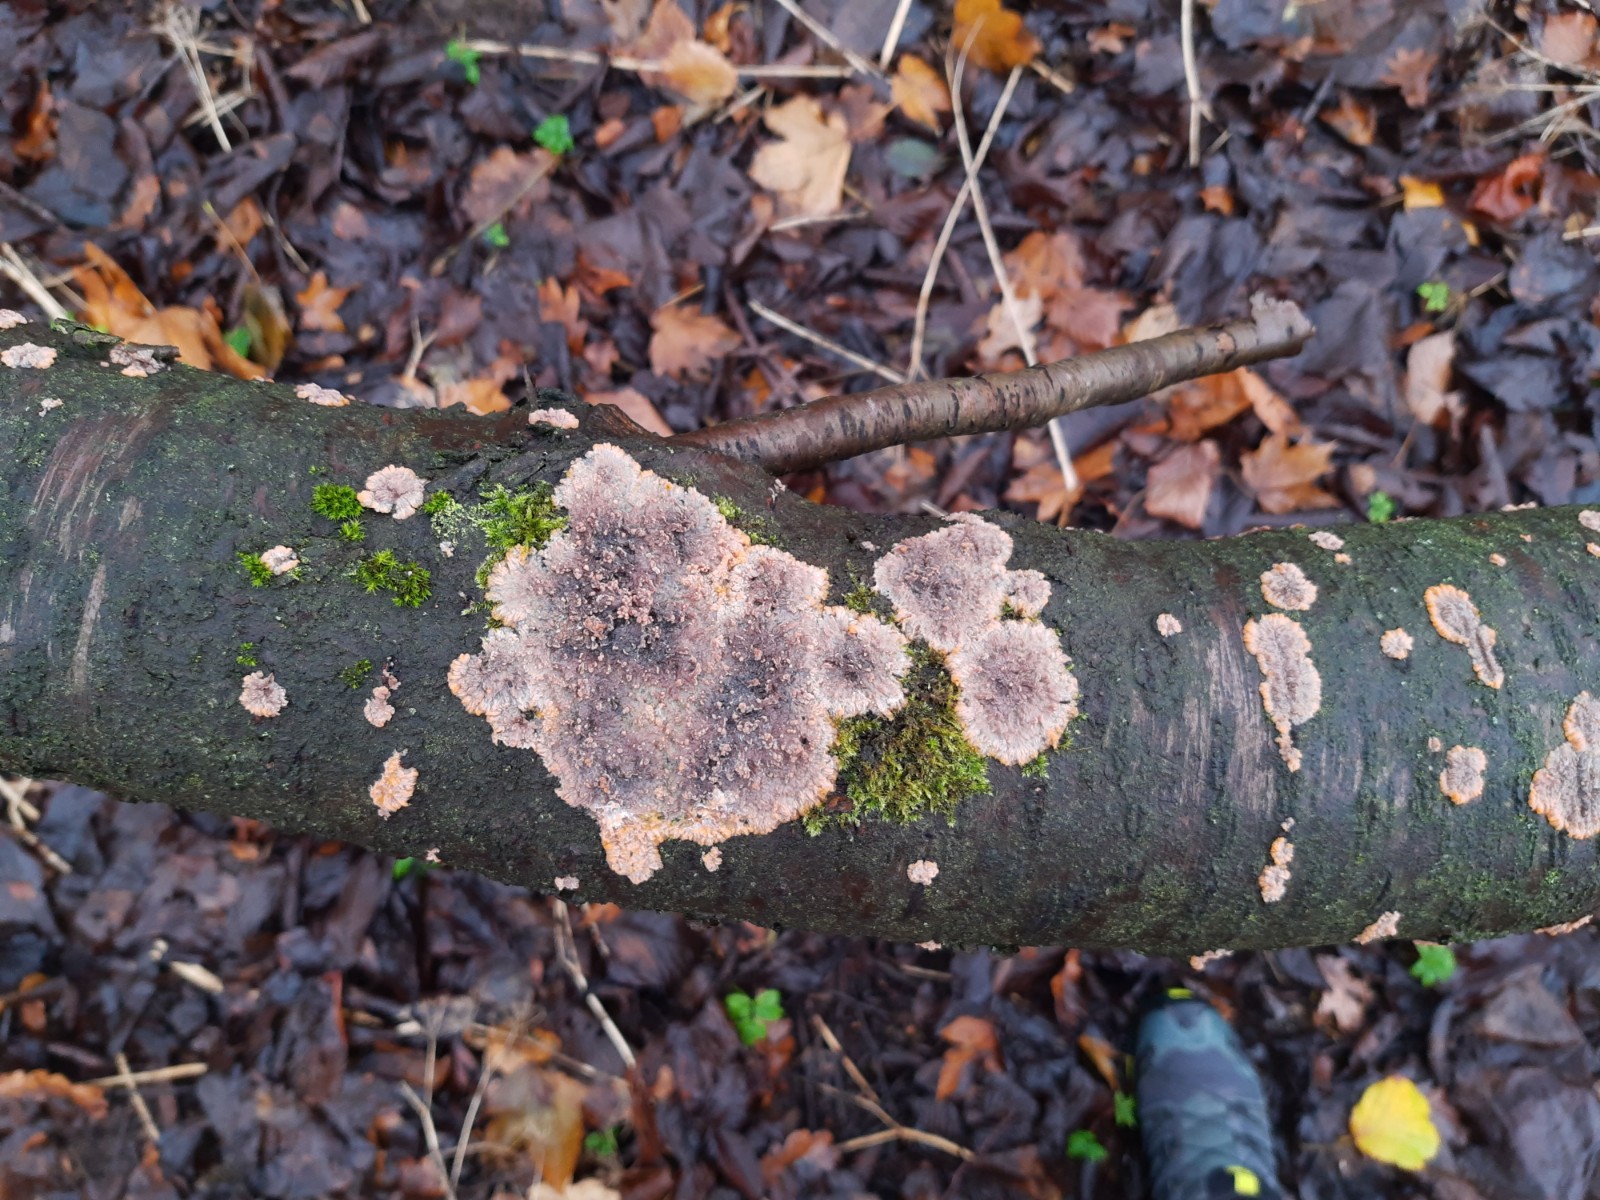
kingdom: Fungi
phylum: Basidiomycota
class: Agaricomycetes
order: Polyporales
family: Meruliaceae
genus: Phlebia
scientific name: Phlebia radiata
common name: stråle-åresvamp
